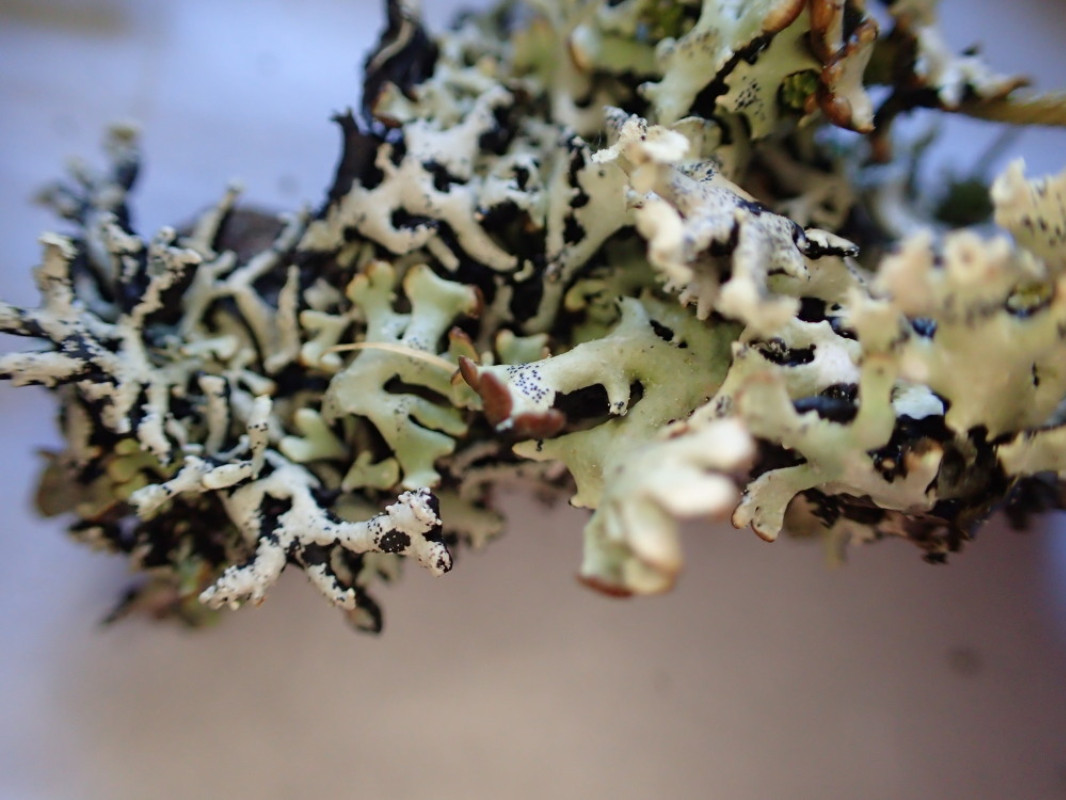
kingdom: Fungi
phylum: Ascomycota
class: Lecanoromycetes
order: Lecanorales
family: Parmeliaceae
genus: Hypogymnia
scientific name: Hypogymnia physodes
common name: almindelig kvistlav
